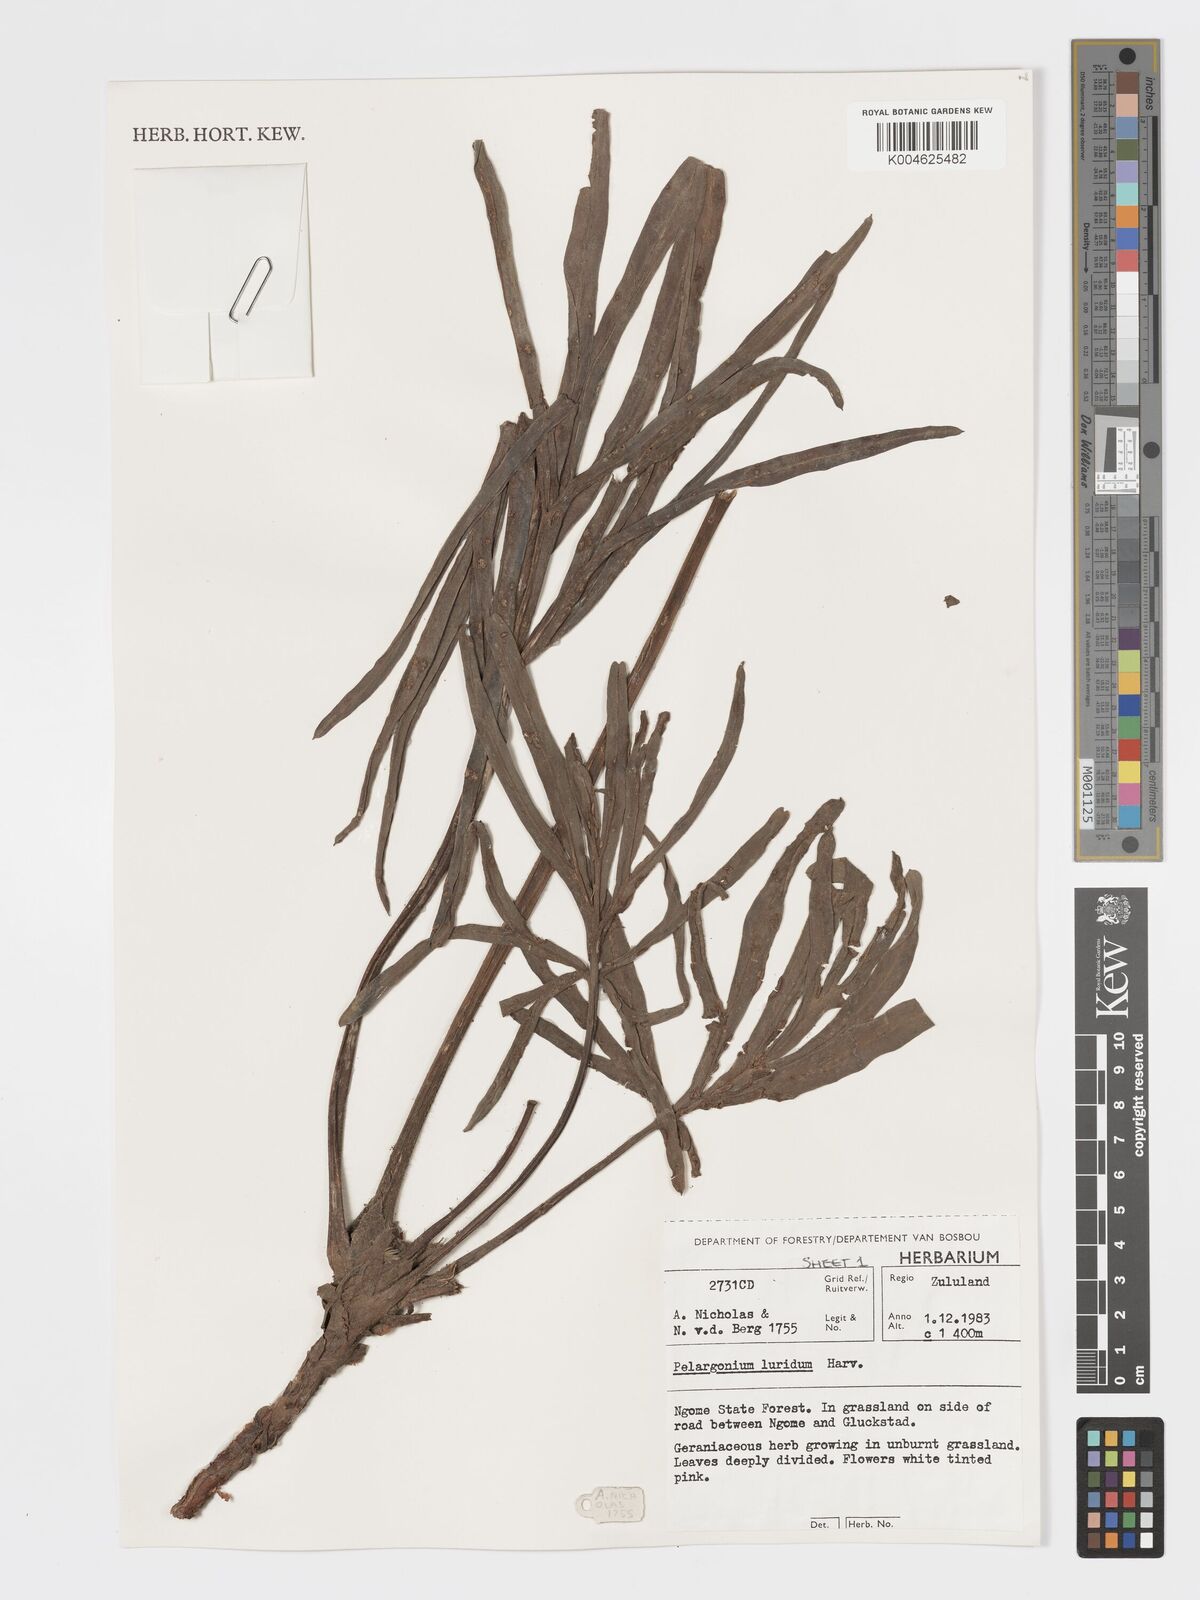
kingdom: Plantae
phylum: Tracheophyta
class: Magnoliopsida
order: Geraniales
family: Geraniaceae
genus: Pelargonium
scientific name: Pelargonium luridum
